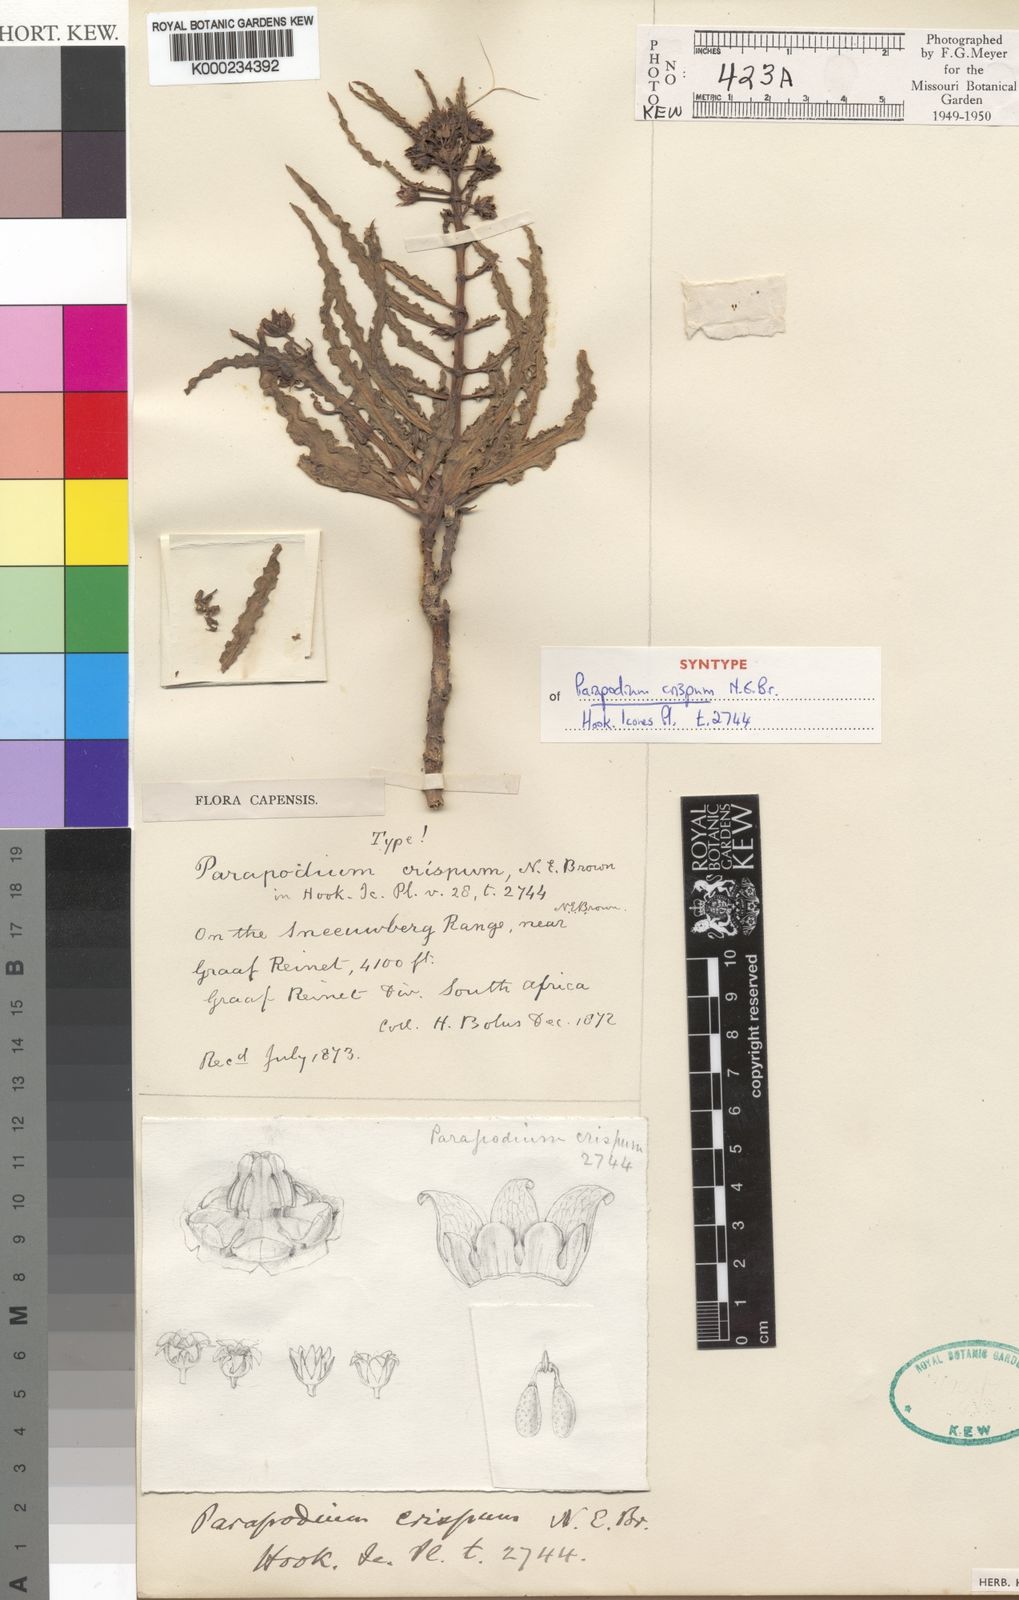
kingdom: Plantae
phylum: Tracheophyta
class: Magnoliopsida
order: Gentianales
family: Asclepiadaceae
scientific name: Asclepiadaceae
